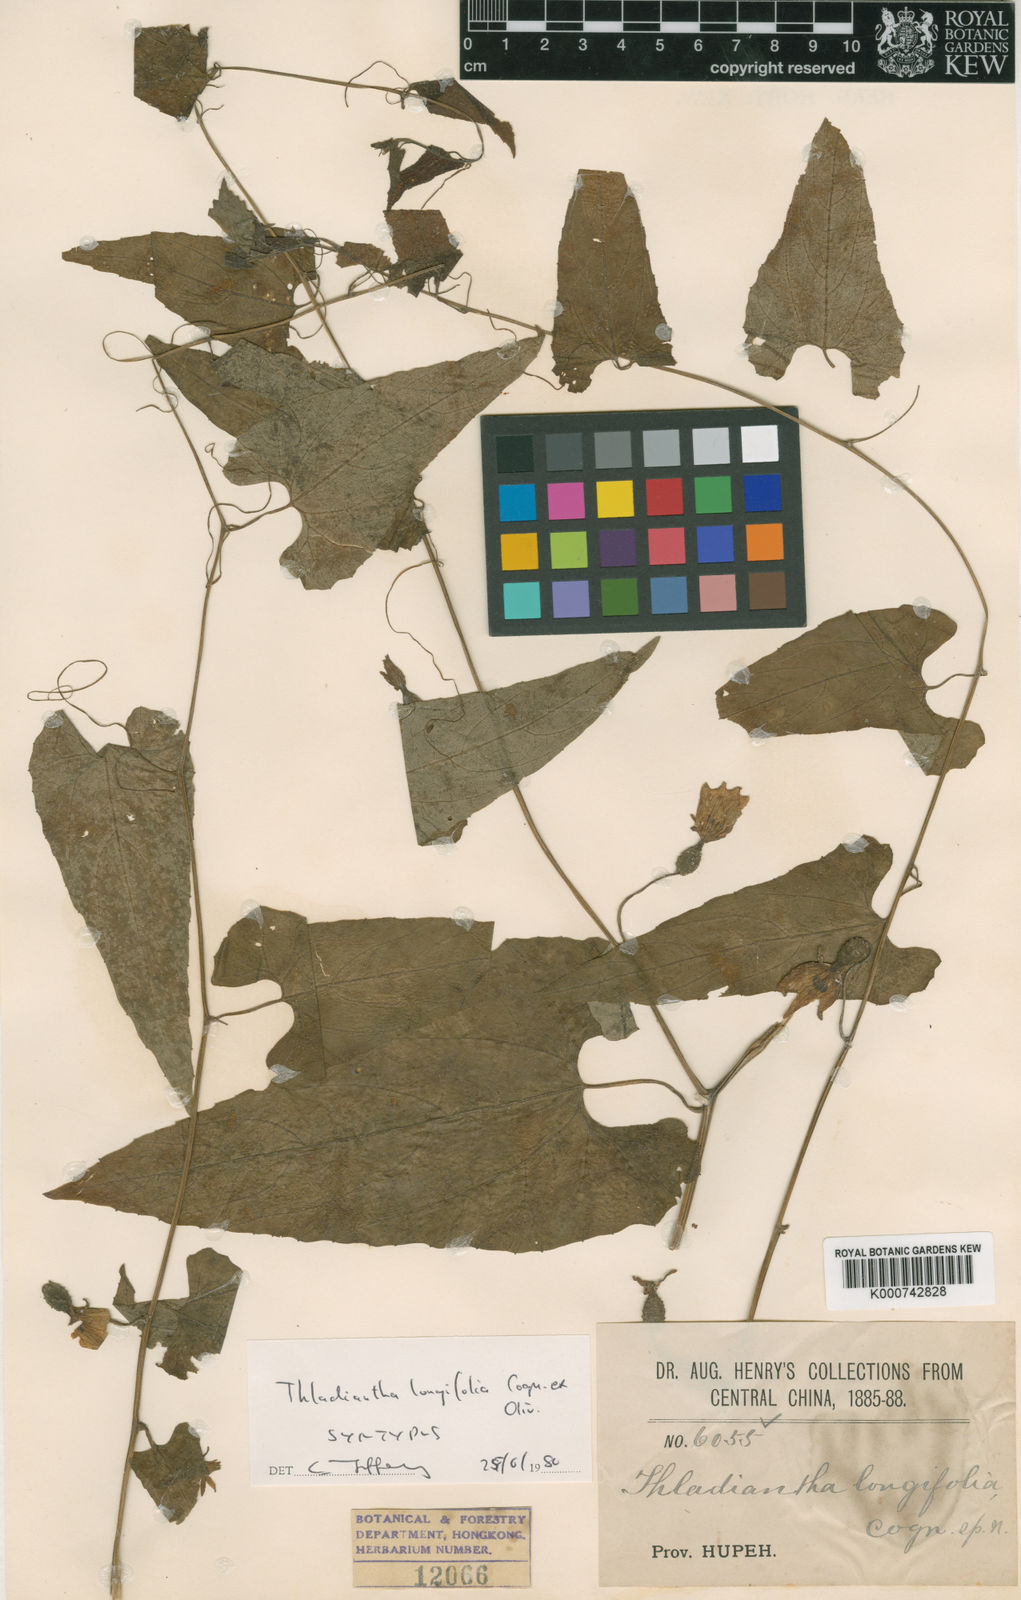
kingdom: Plantae
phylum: Tracheophyta
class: Magnoliopsida
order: Cucurbitales
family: Cucurbitaceae
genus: Thladiantha
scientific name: Thladiantha longifolia
